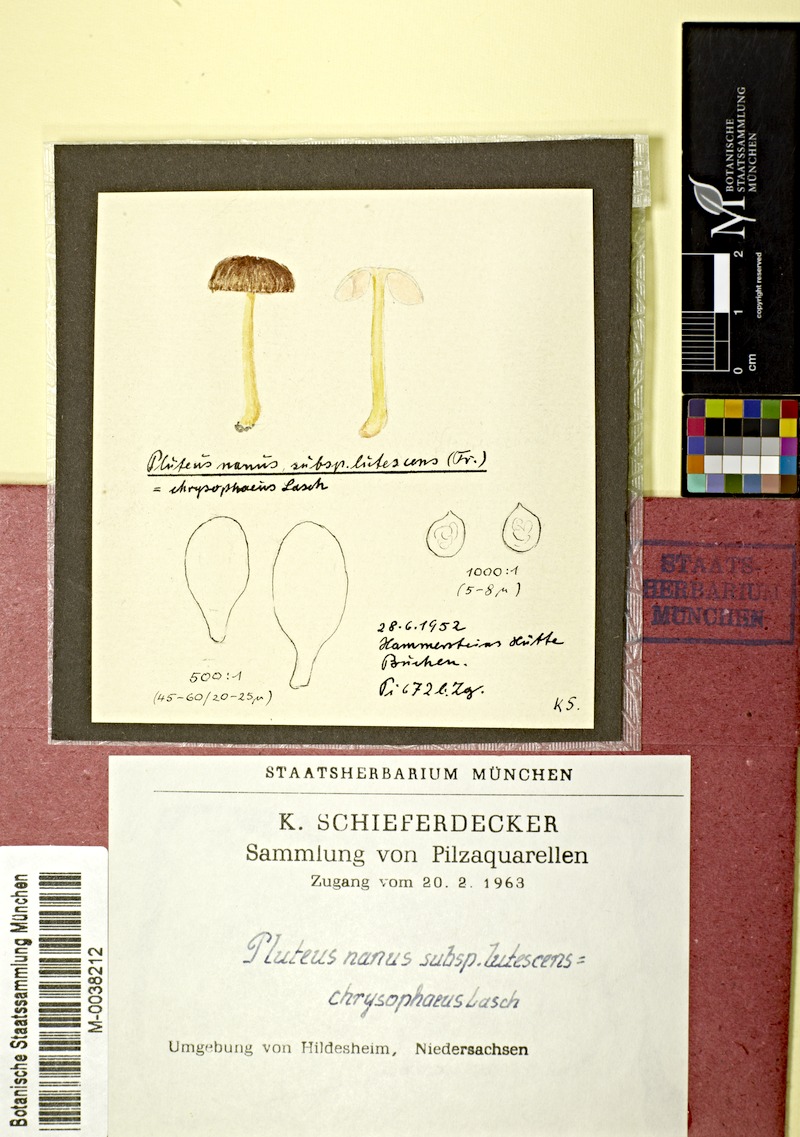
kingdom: Fungi
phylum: Basidiomycota
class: Agaricomycetes
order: Agaricales
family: Pluteaceae
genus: Pluteus
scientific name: Pluteus romellii
